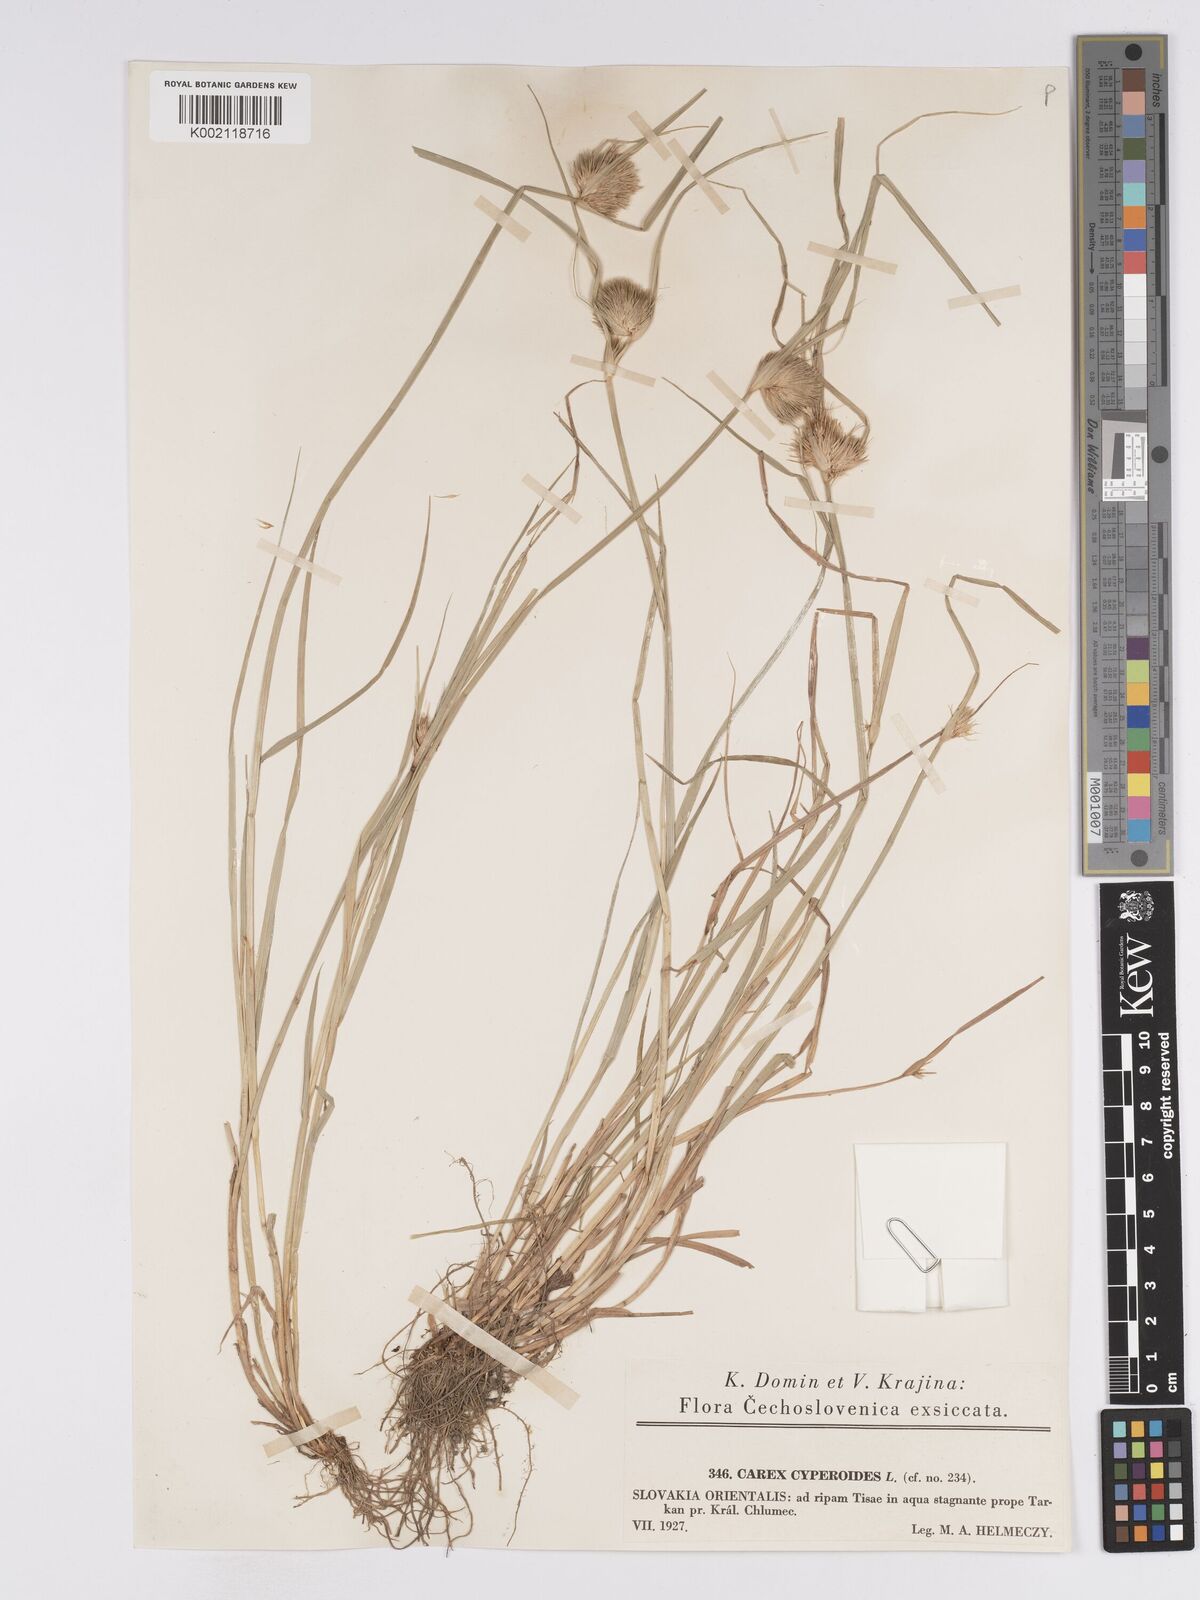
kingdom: Plantae
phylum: Tracheophyta
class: Liliopsida
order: Poales
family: Cyperaceae
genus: Carex
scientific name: Carex bohemica
